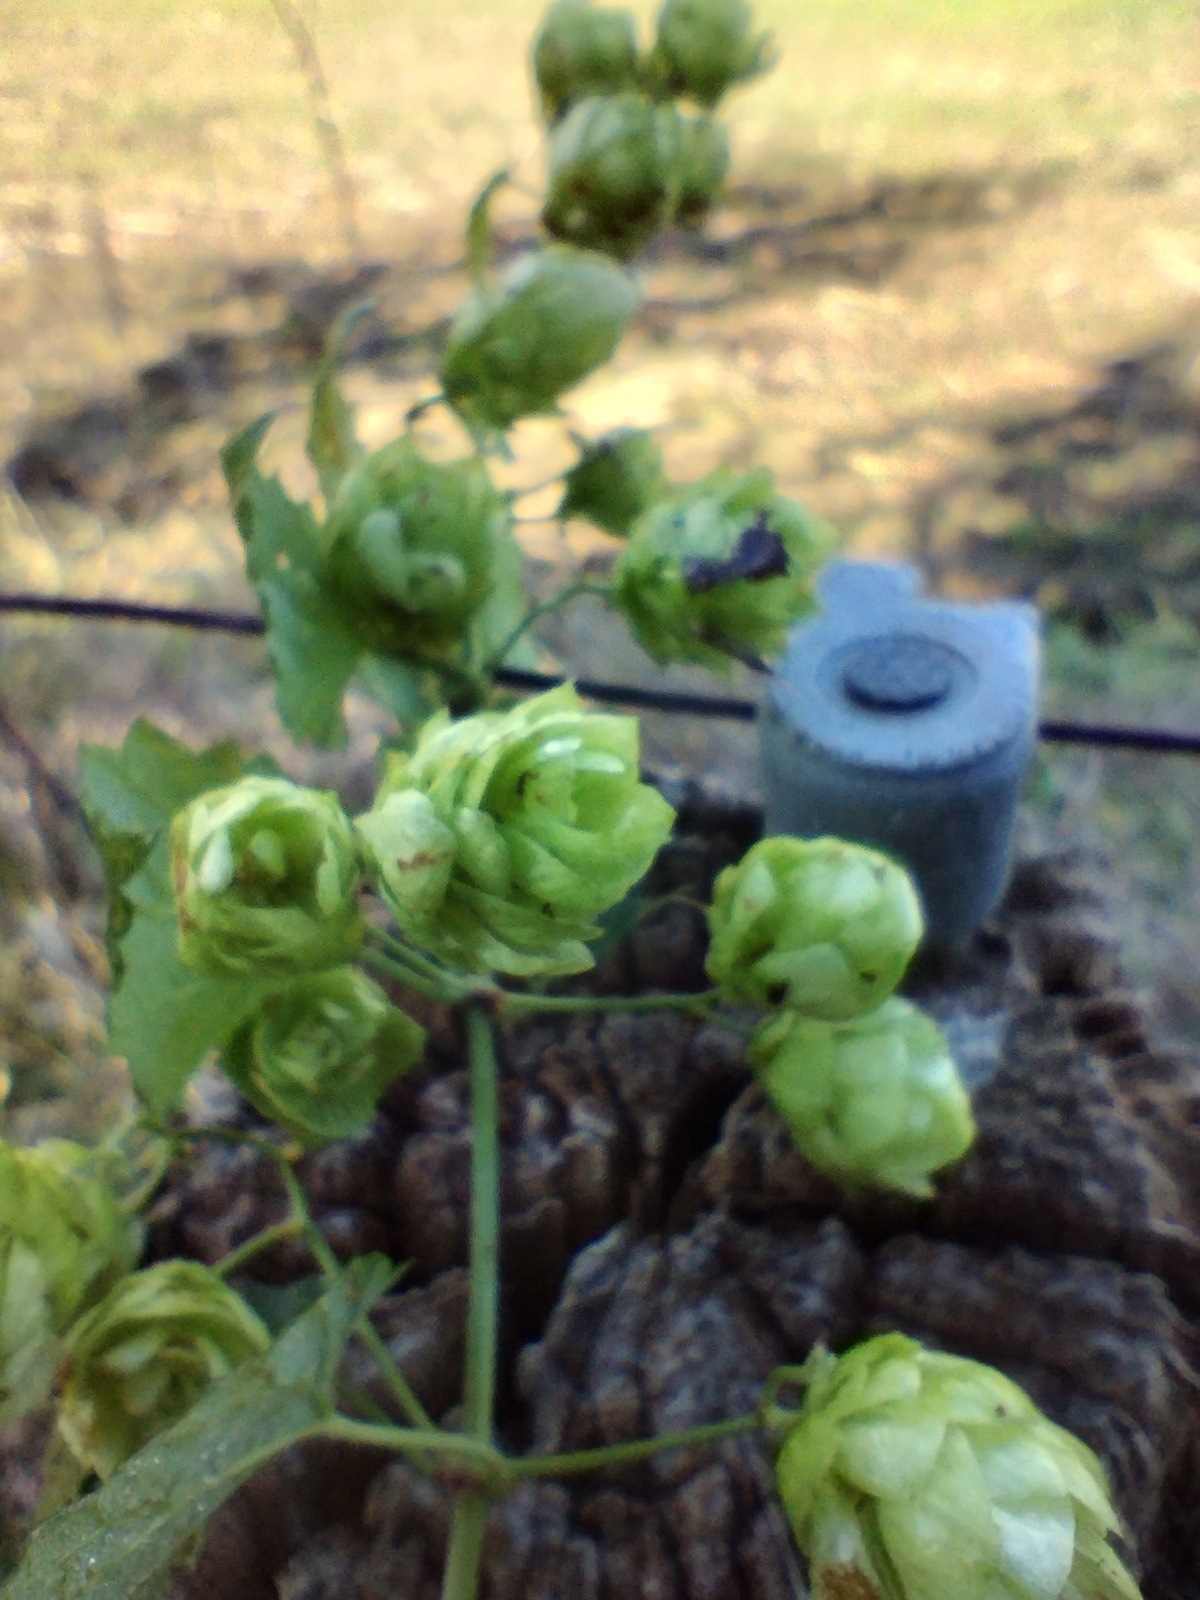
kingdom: Plantae
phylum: Tracheophyta
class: Magnoliopsida
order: Rosales
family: Cannabaceae
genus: Humulus
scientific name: Humulus lupulus
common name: Humle
